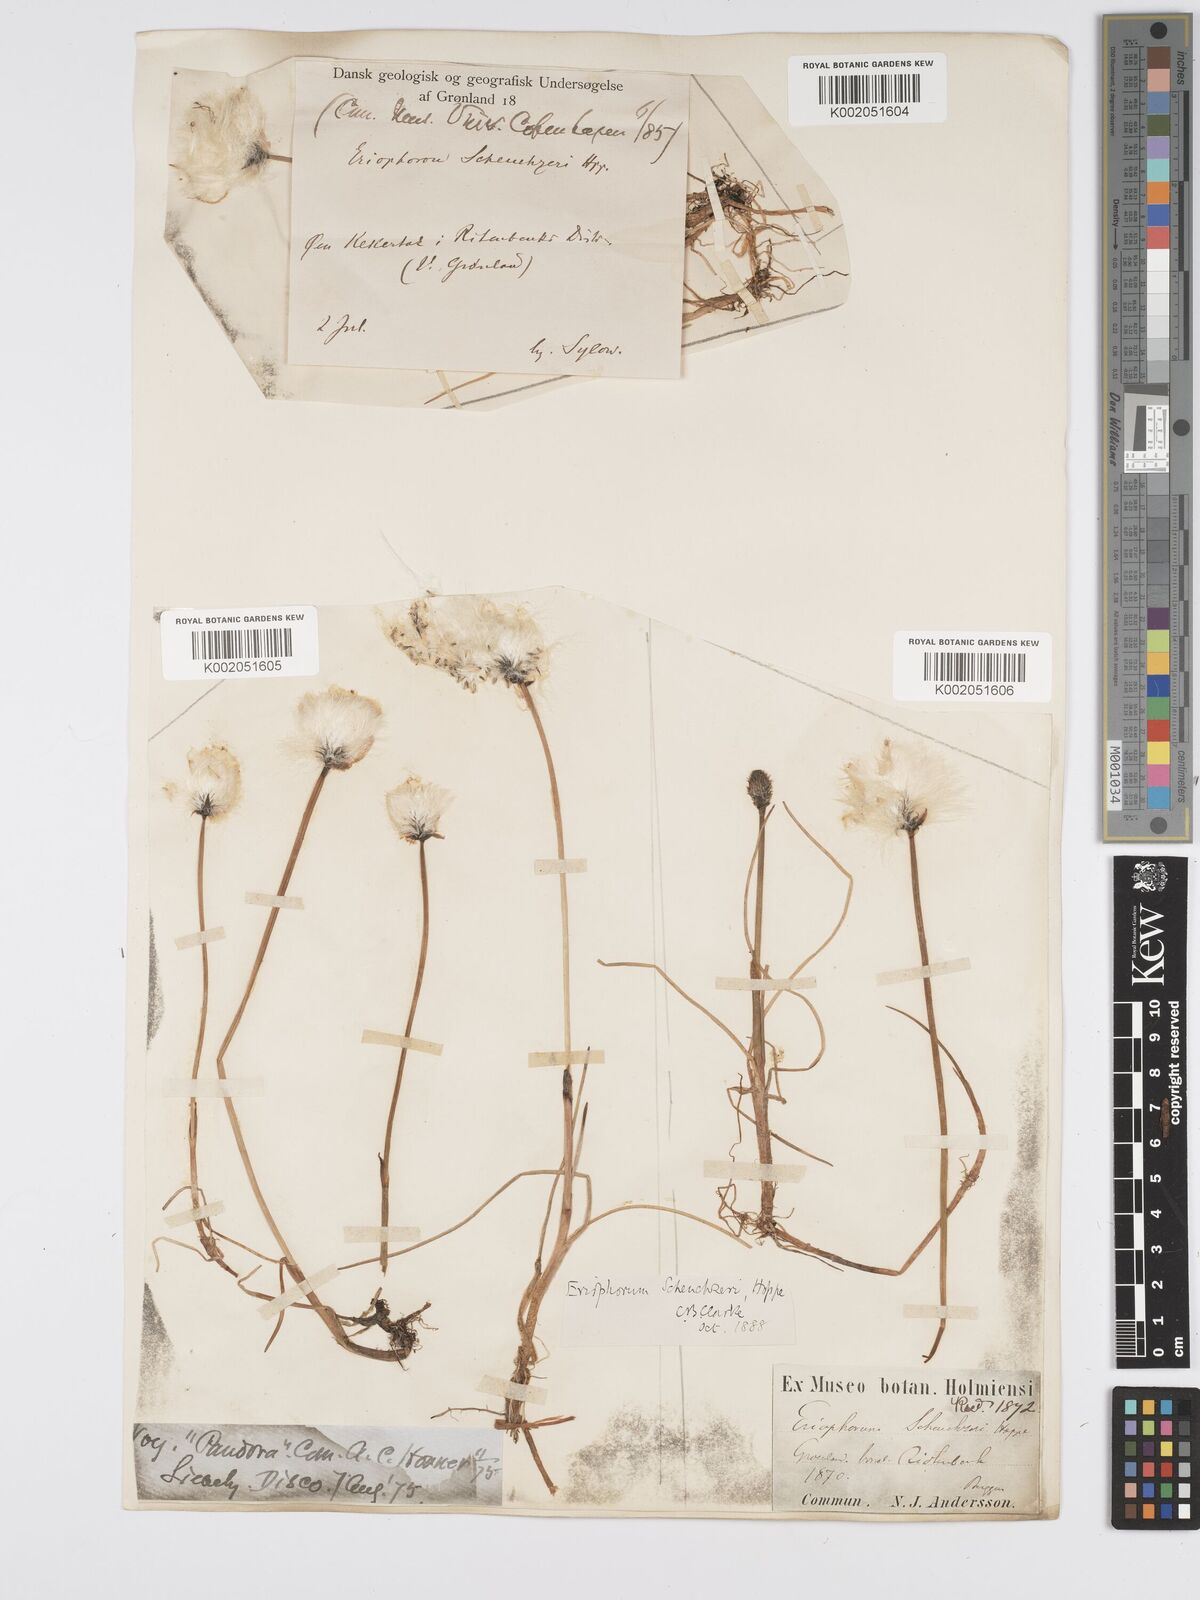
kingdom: Plantae
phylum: Tracheophyta
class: Liliopsida
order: Poales
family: Cyperaceae
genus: Eriophorum
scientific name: Eriophorum scheuchzeri
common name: Scheuchzer's cottongrass
